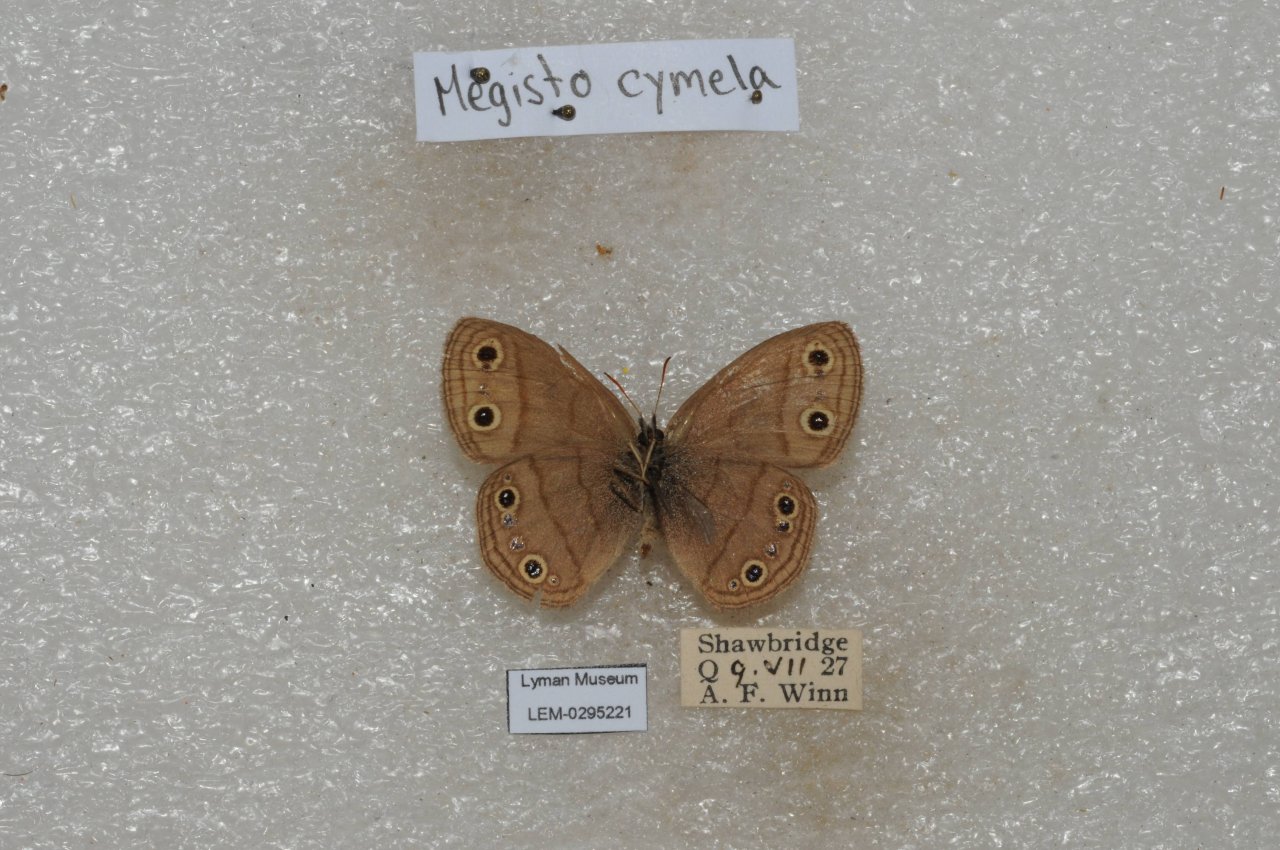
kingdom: Animalia
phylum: Arthropoda
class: Insecta
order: Lepidoptera
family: Nymphalidae
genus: Euptychia
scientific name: Euptychia cymela
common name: Little Wood Satyr
